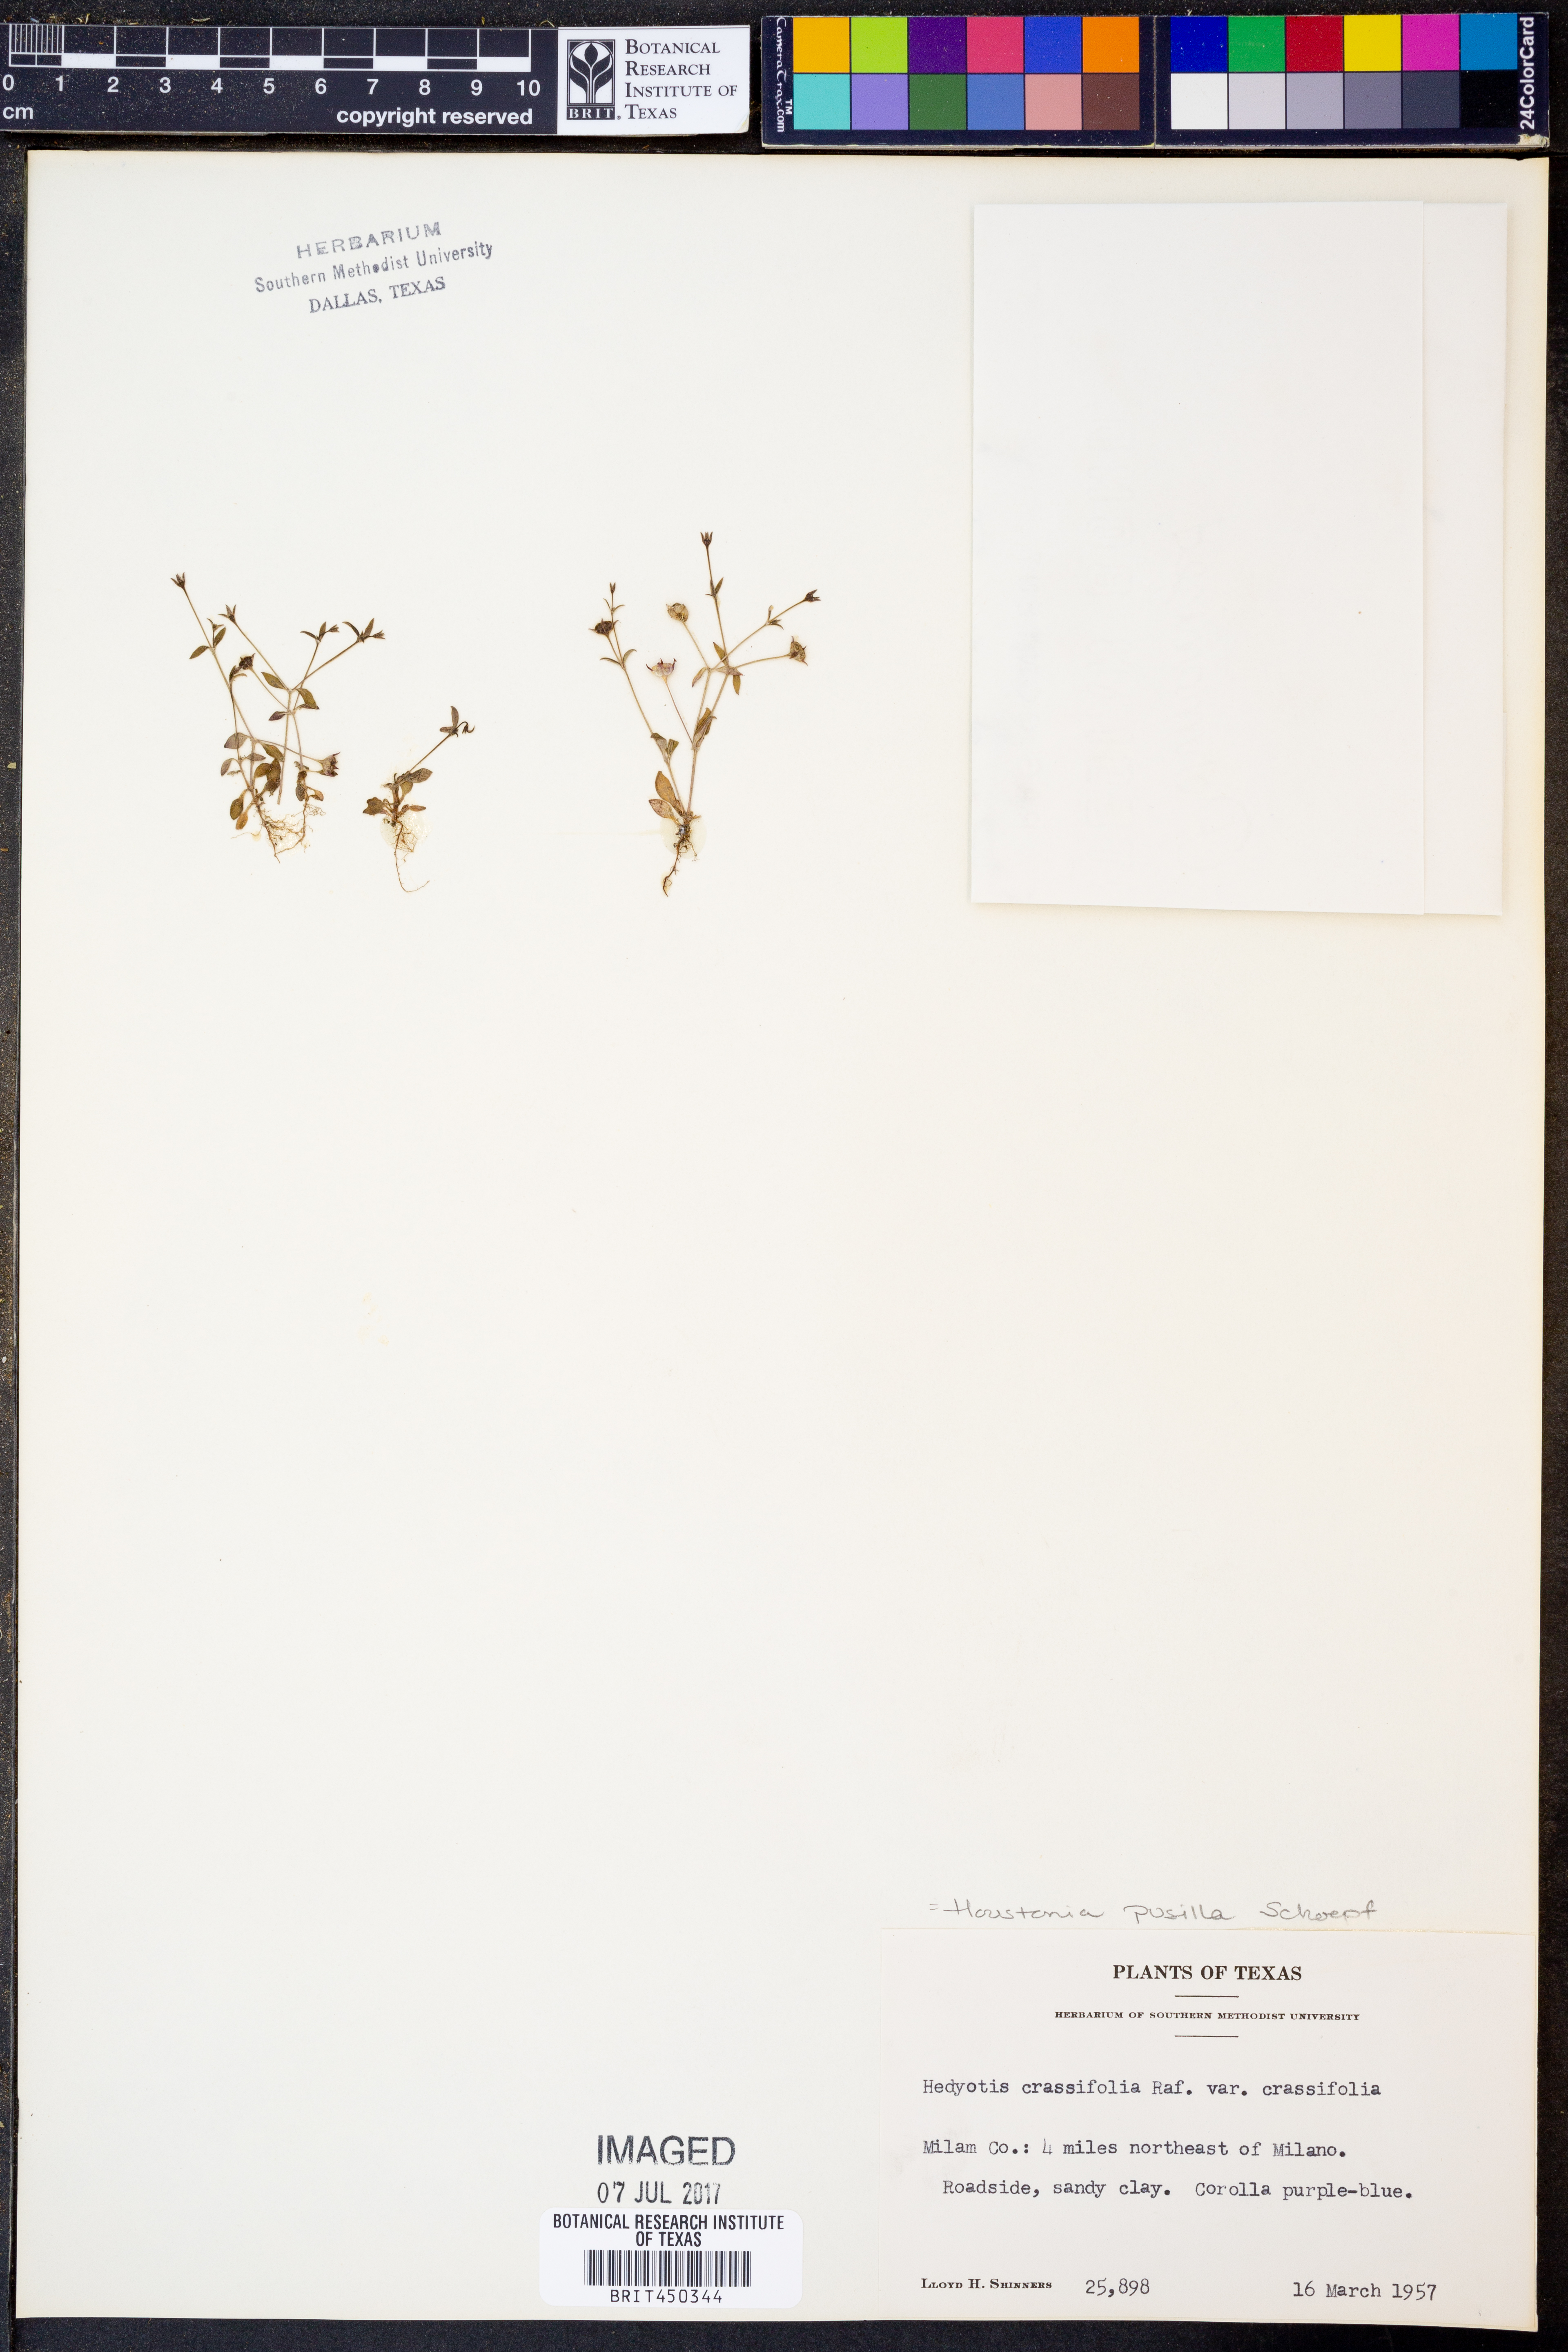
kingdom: Plantae
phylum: Tracheophyta
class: Magnoliopsida
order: Gentianales
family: Rubiaceae
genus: Houstonia
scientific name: Houstonia pusilla
